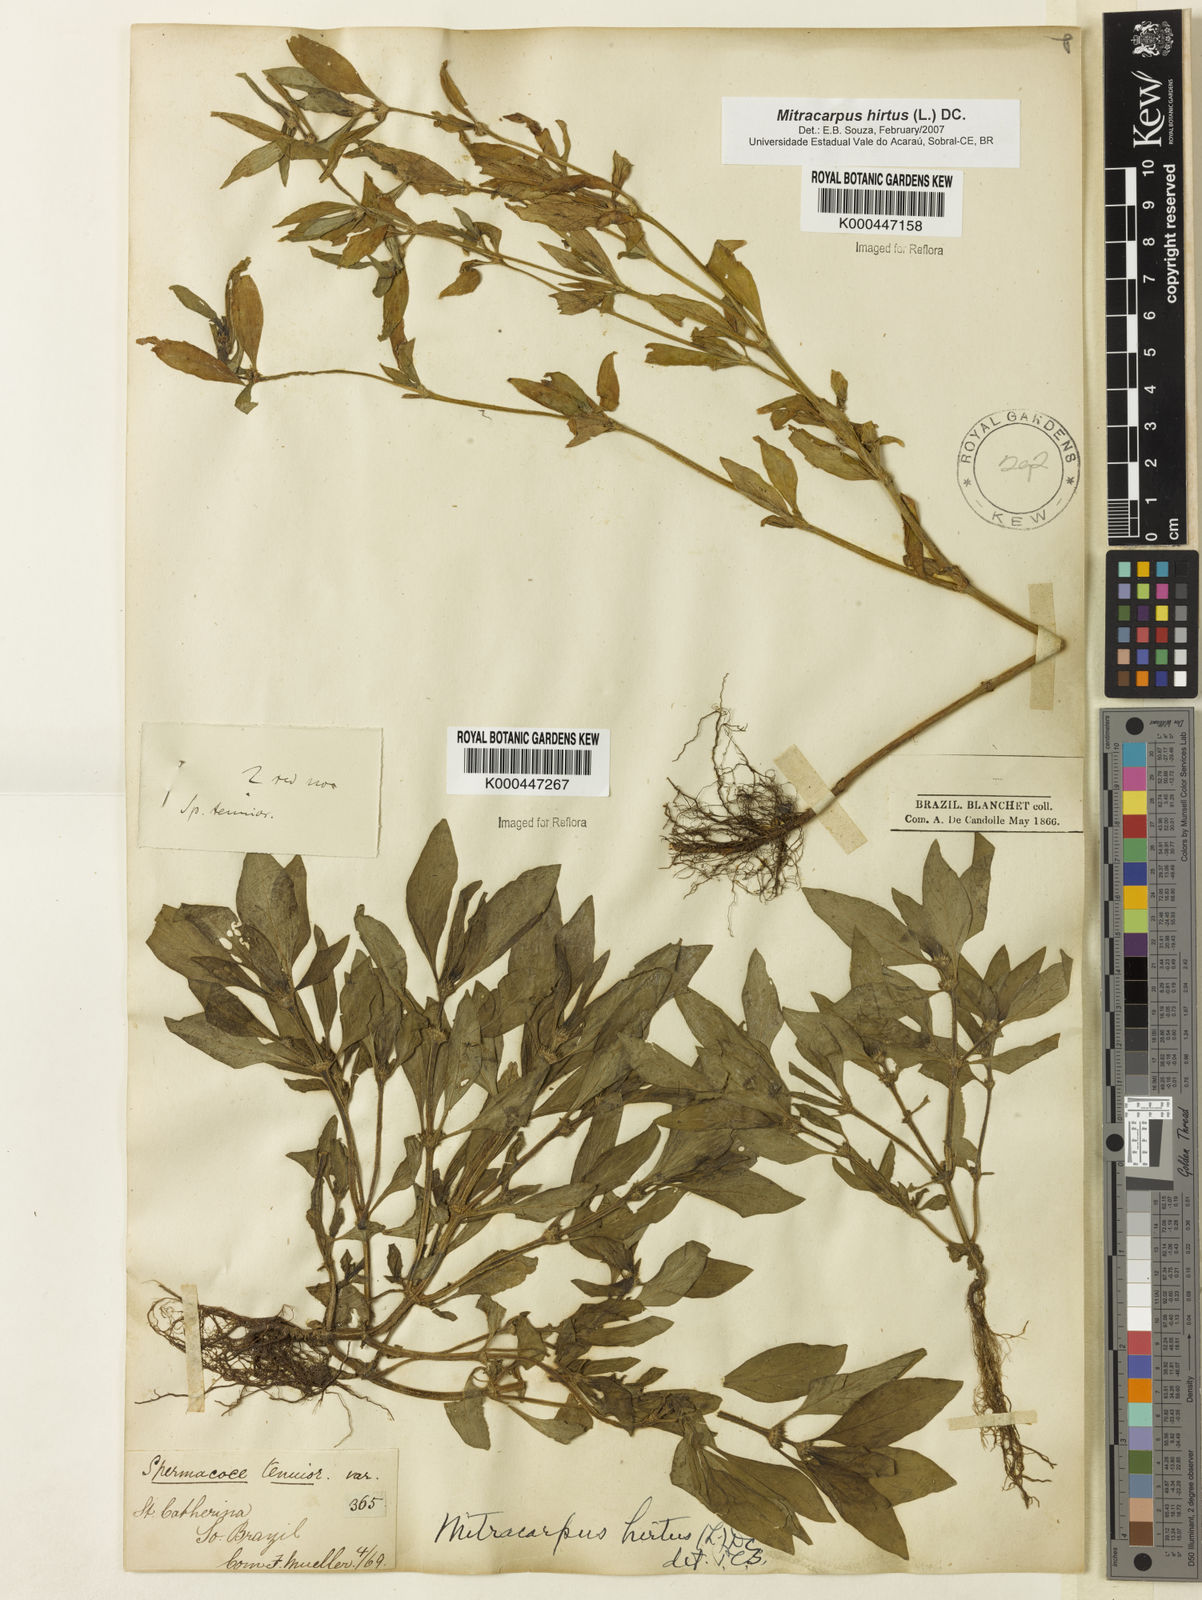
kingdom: Plantae
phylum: Tracheophyta
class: Magnoliopsida
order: Gentianales
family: Rubiaceae
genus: Mitracarpus
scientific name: Mitracarpus hirtus
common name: Tropical girdlepod
